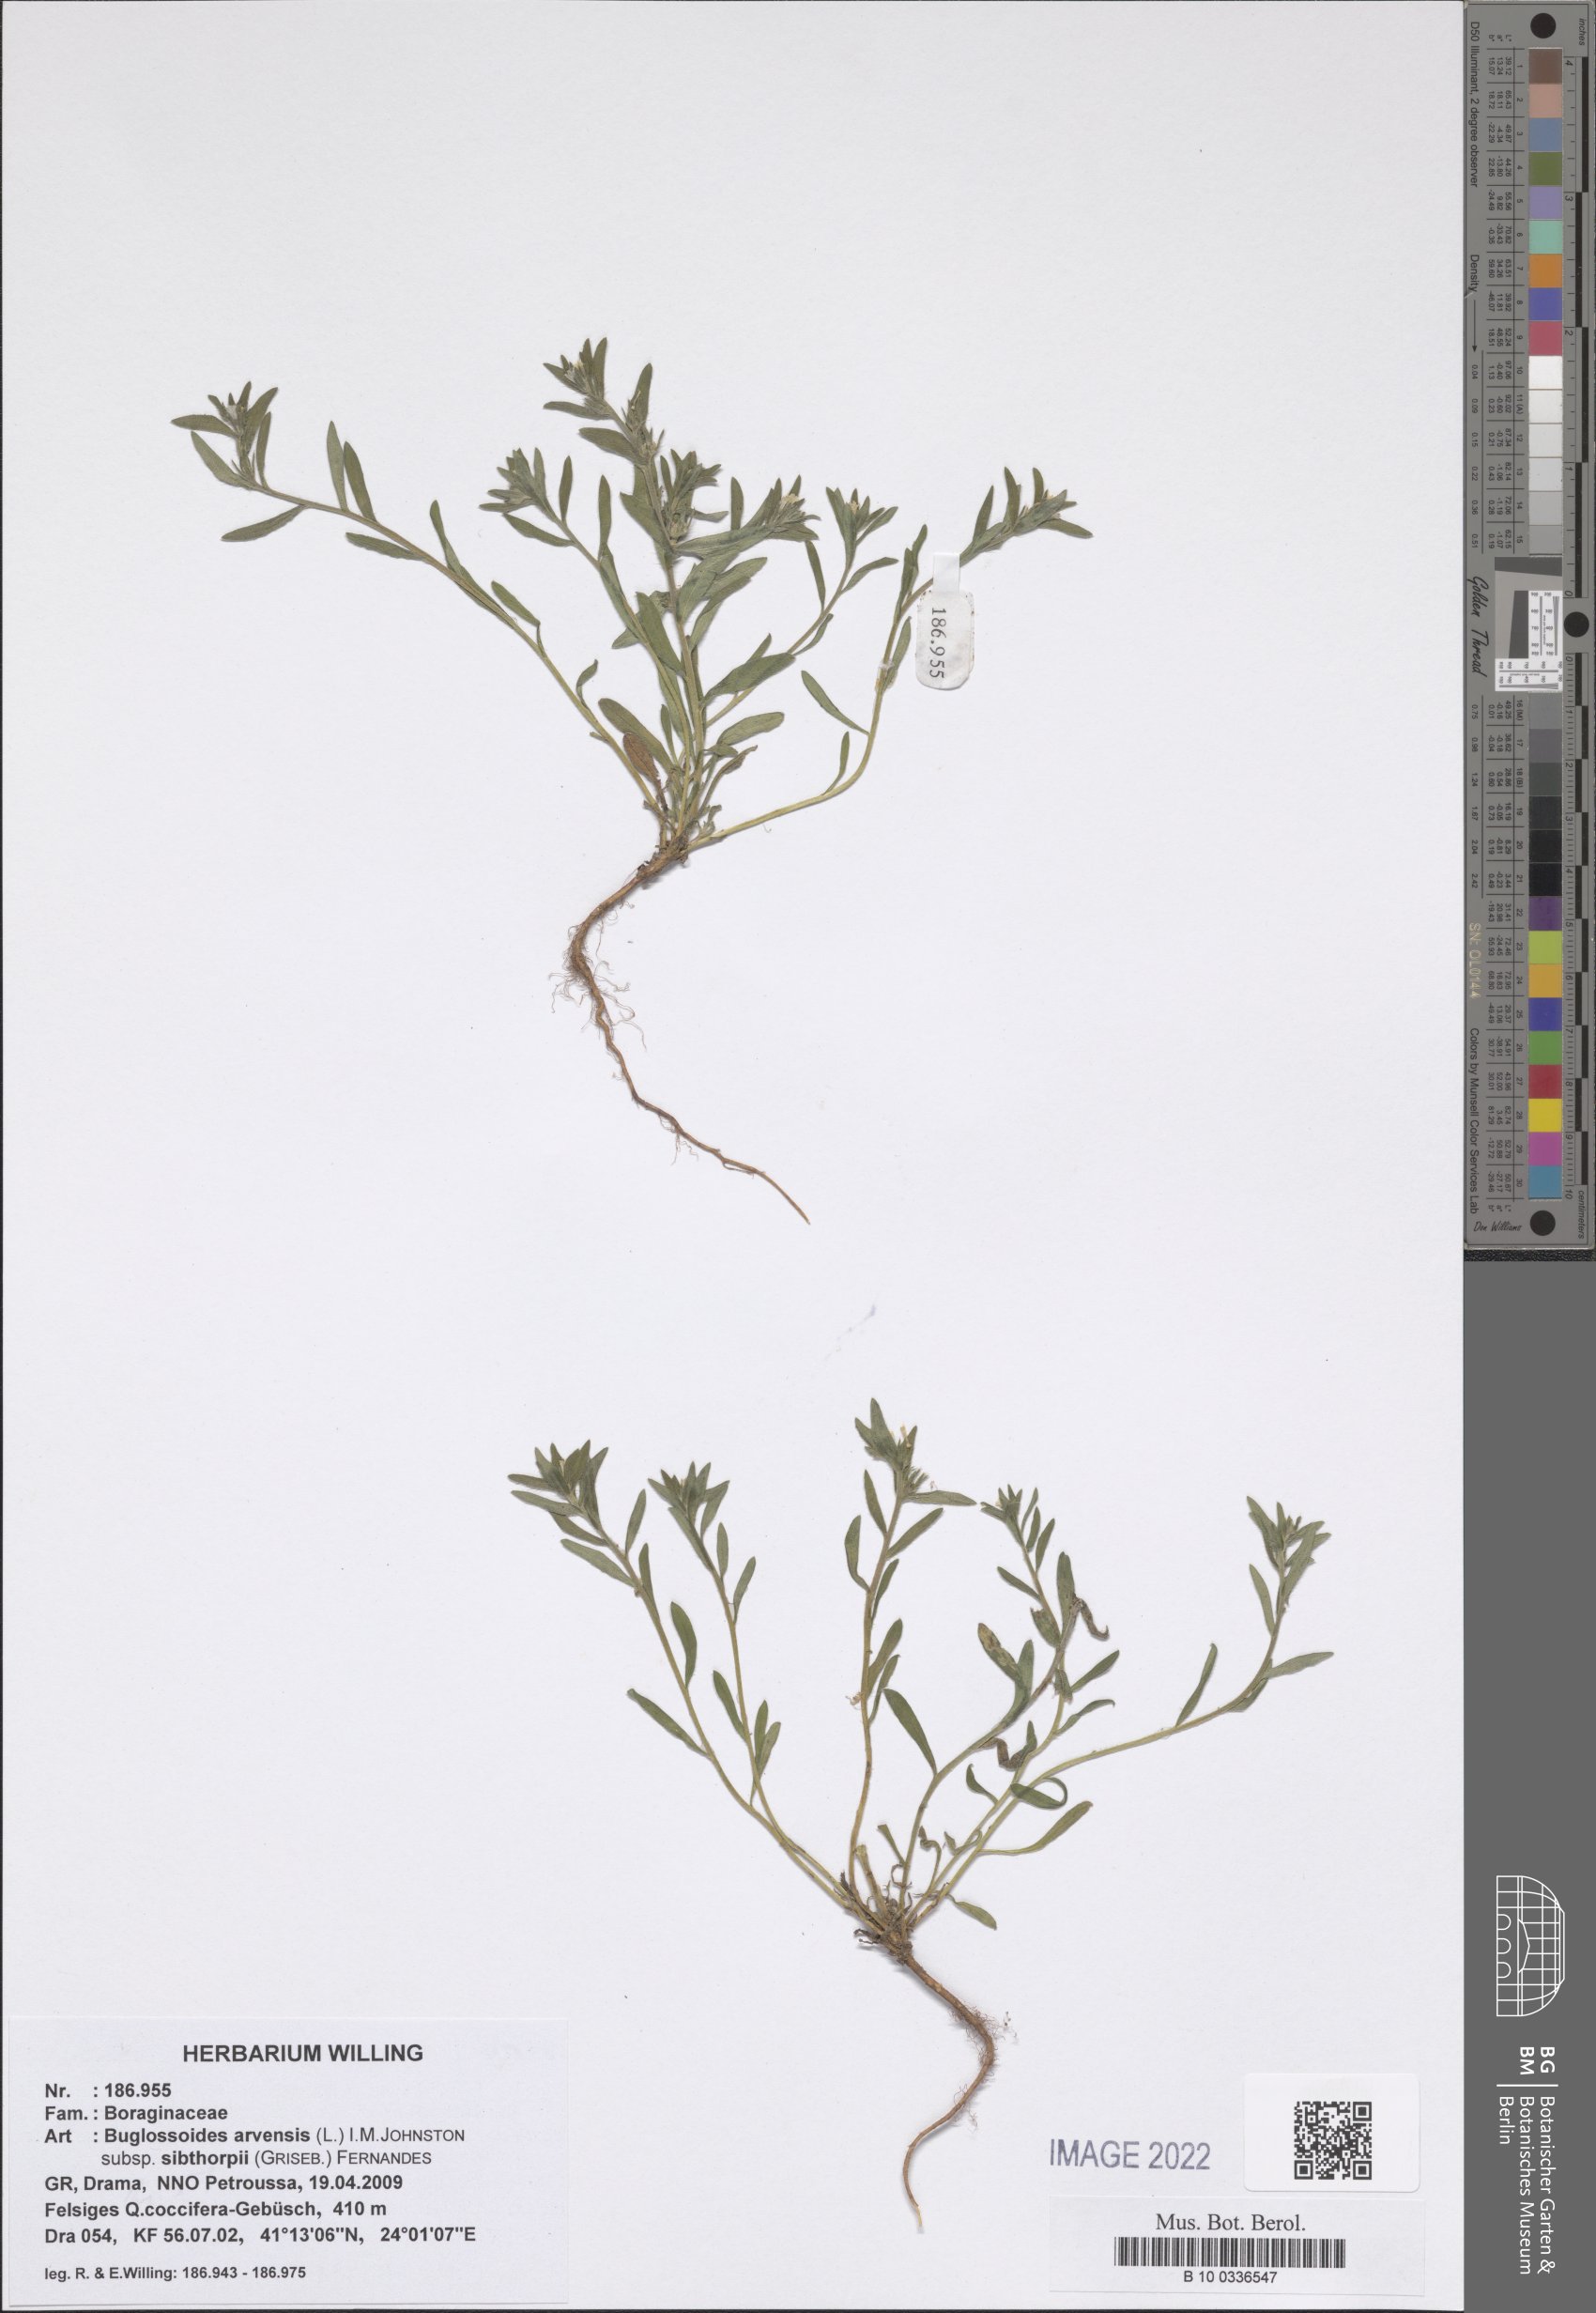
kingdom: Plantae
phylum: Tracheophyta
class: Magnoliopsida
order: Boraginales
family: Boraginaceae
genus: Buglossoides
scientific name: Buglossoides arvensis
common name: Corn gromwell
